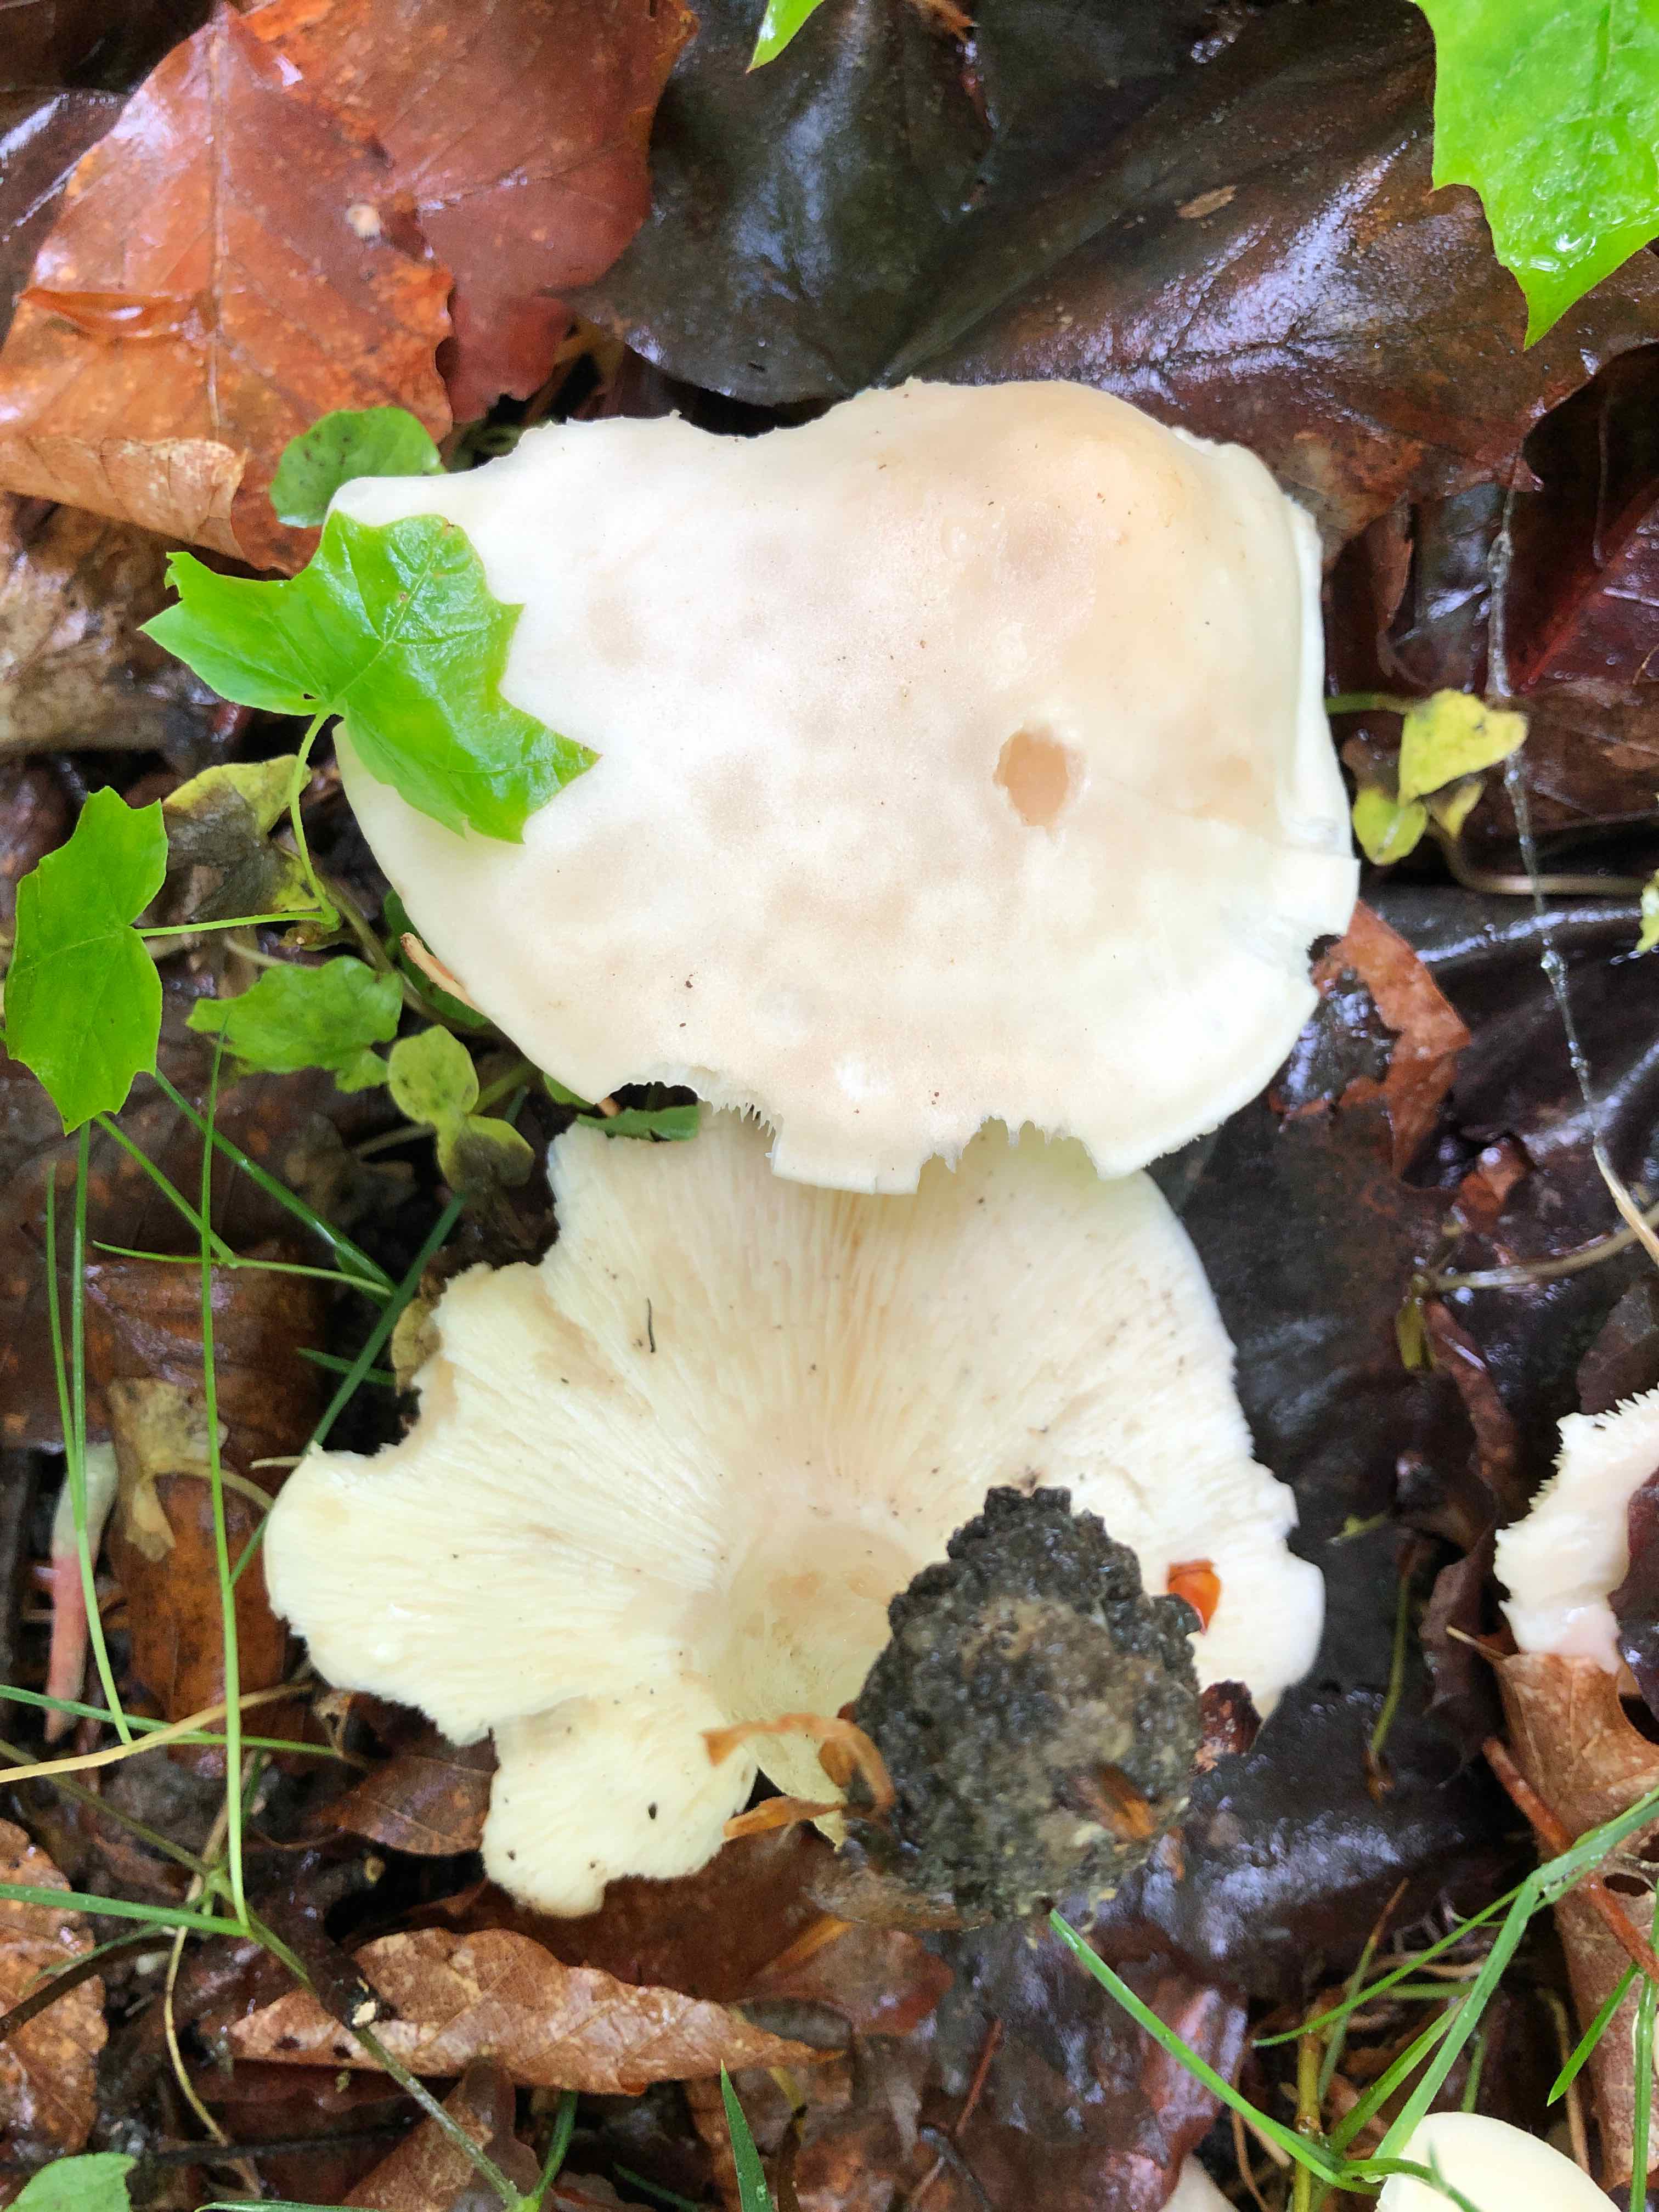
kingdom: Fungi
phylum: Basidiomycota
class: Agaricomycetes
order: Agaricales
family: Lyophyllaceae
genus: Calocybe
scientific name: Calocybe gambosa
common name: vårmusseron
